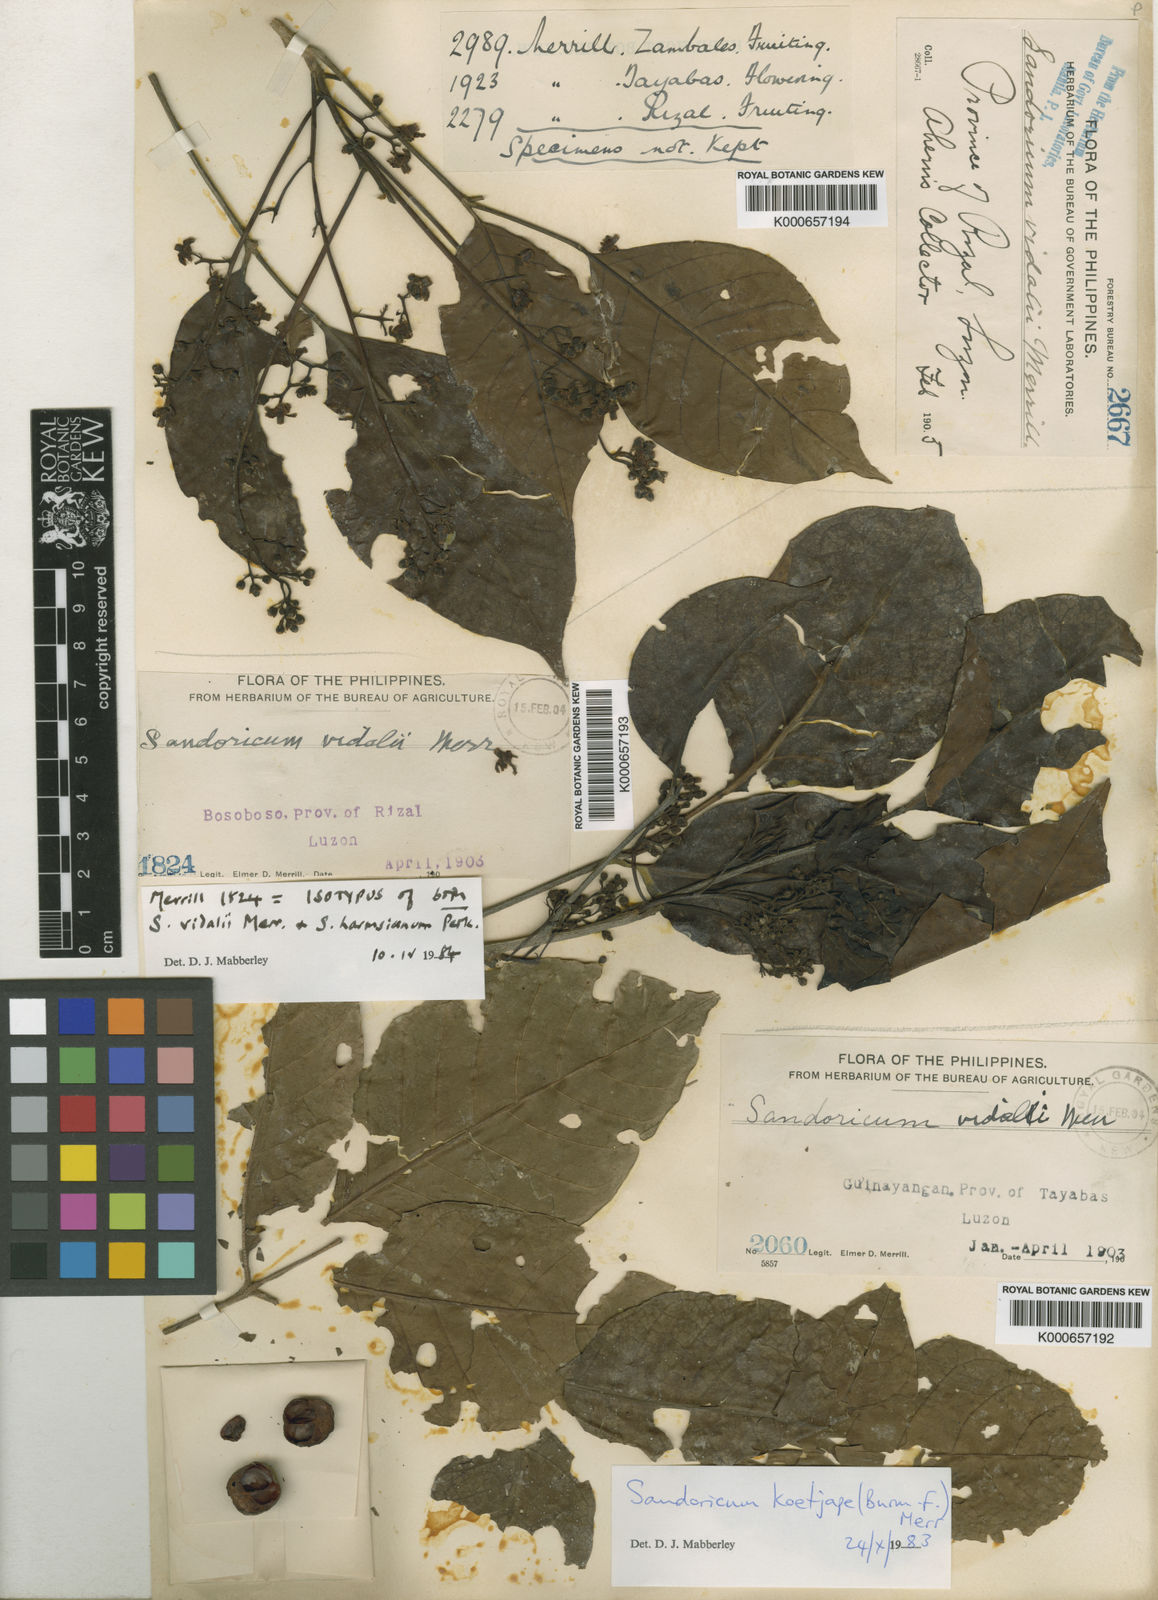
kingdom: Plantae
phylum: Tracheophyta
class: Magnoliopsida
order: Sapindales
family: Meliaceae
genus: Sandoricum
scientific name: Sandoricum koetjape
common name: Santol
